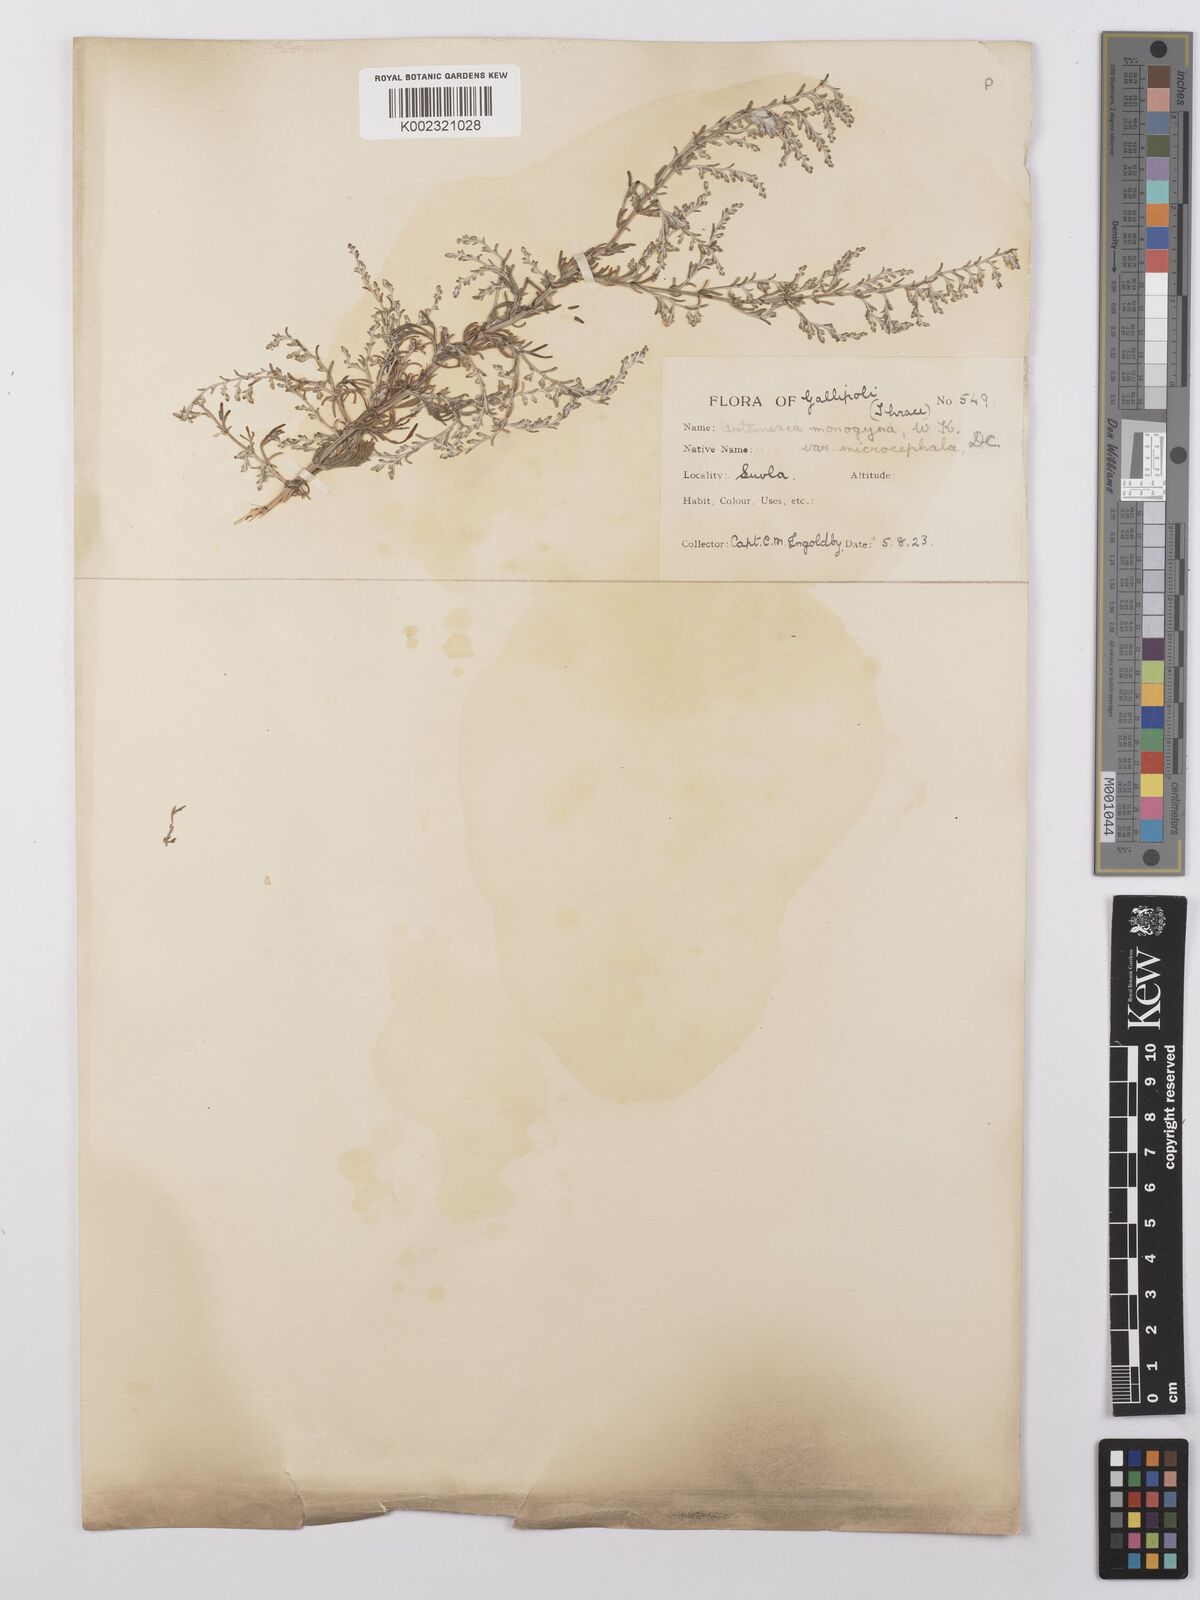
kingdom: Plantae
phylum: Tracheophyta
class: Magnoliopsida
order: Asterales
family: Asteraceae
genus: Artemisia
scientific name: Artemisia santonicum
